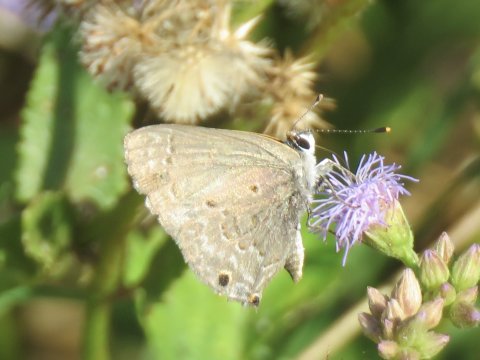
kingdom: Animalia
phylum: Arthropoda
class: Insecta
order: Lepidoptera
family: Lycaenidae
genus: Callicista
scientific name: Callicista columella
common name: Mallow Scrub-Hairstreak
